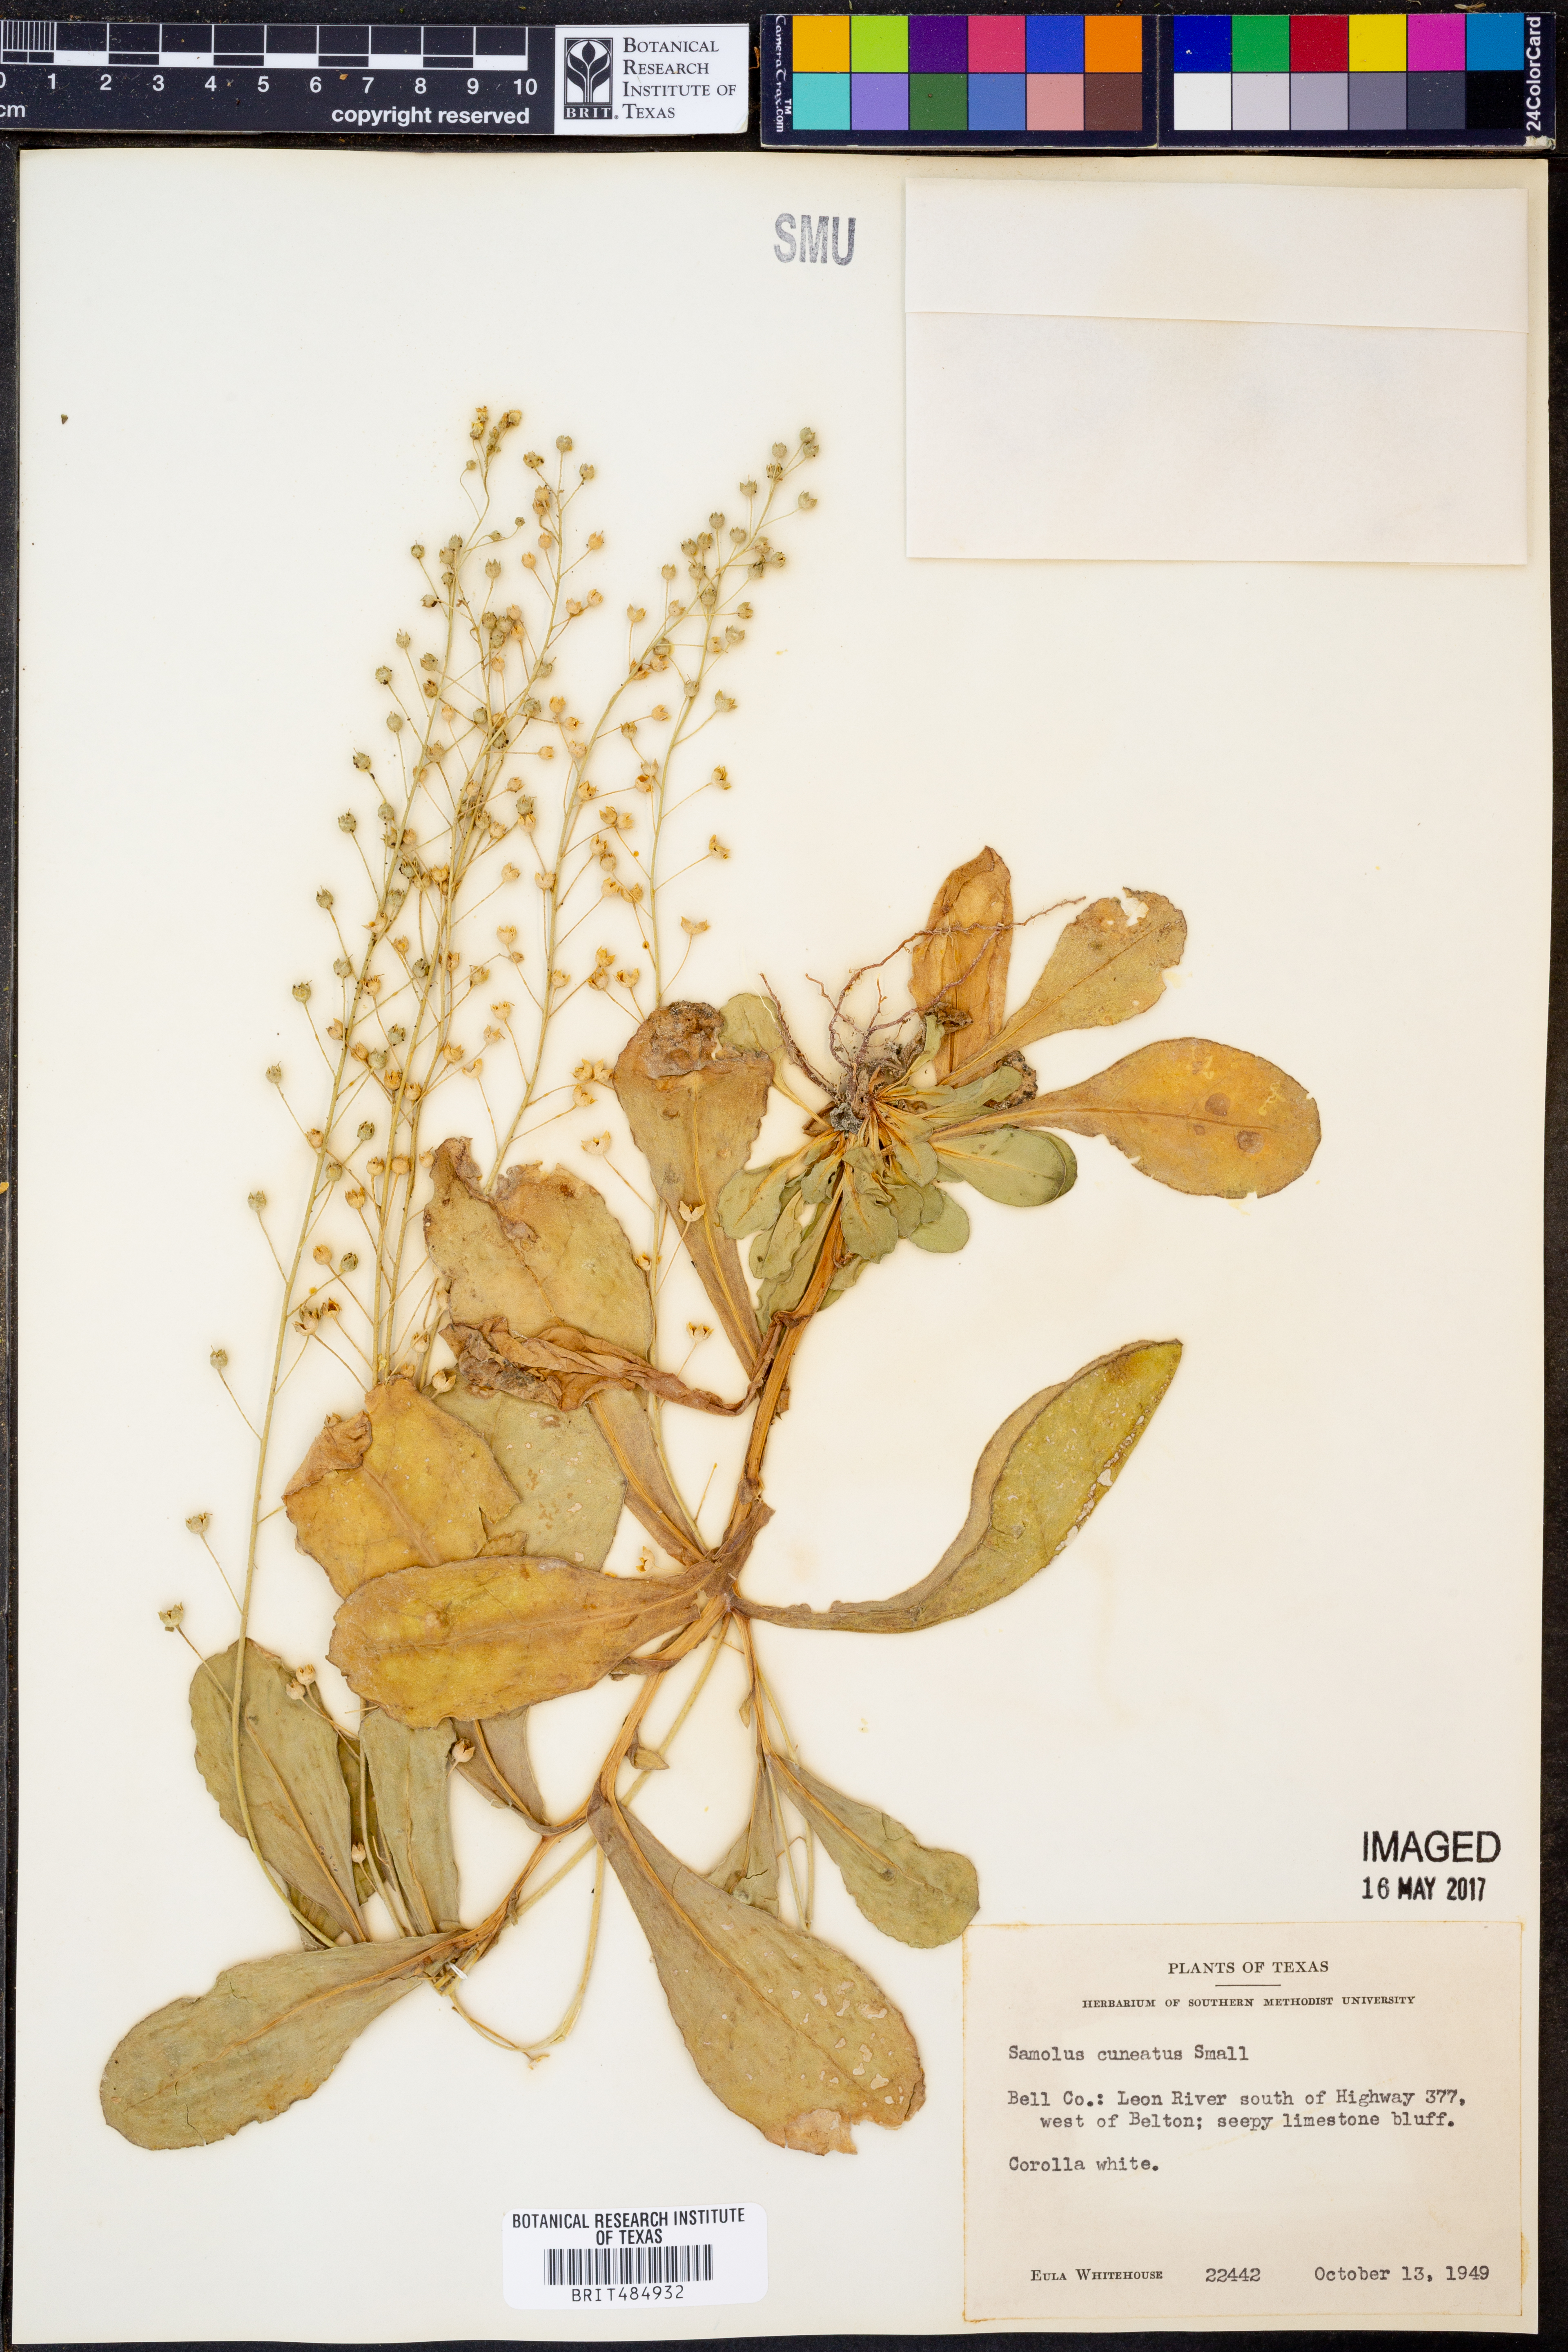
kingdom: Plantae
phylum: Tracheophyta
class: Magnoliopsida
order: Ericales
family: Primulaceae
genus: Samolus
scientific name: Samolus ebracteatus
